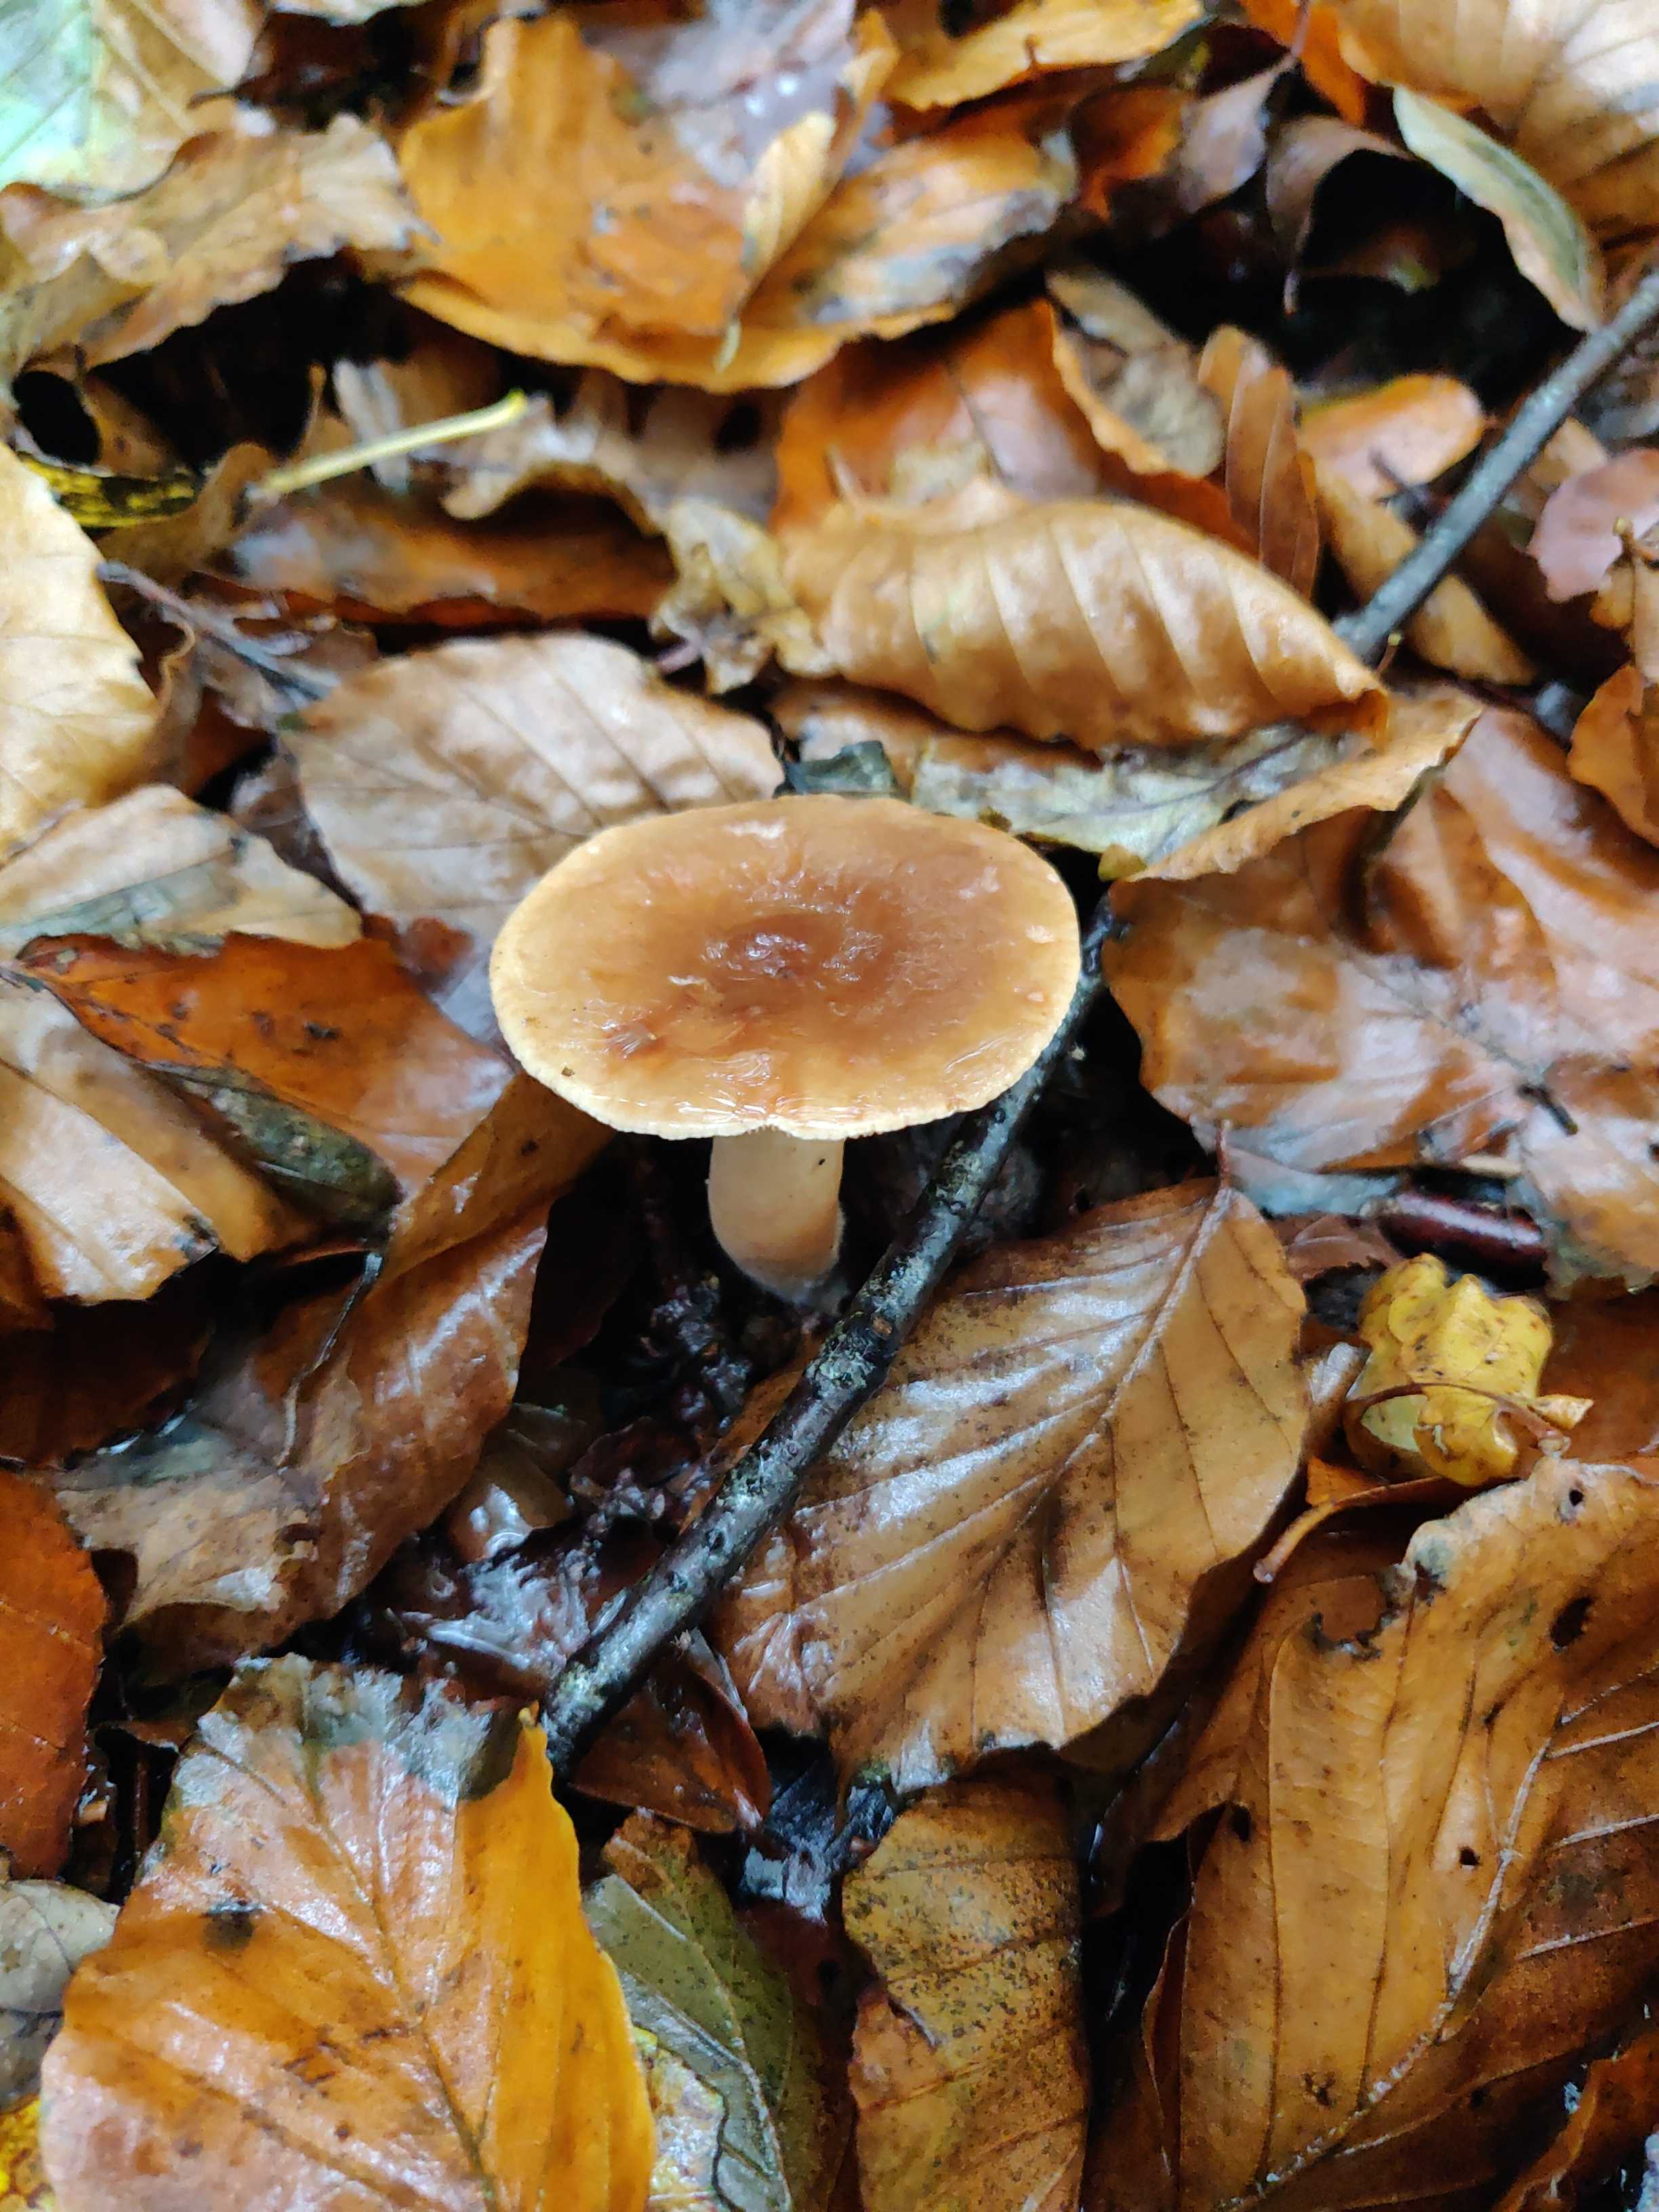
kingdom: Fungi
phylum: Basidiomycota
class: Agaricomycetes
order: Russulales
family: Russulaceae
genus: Lactarius
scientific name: Lactarius subdulcis
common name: sødlig mælkehat
